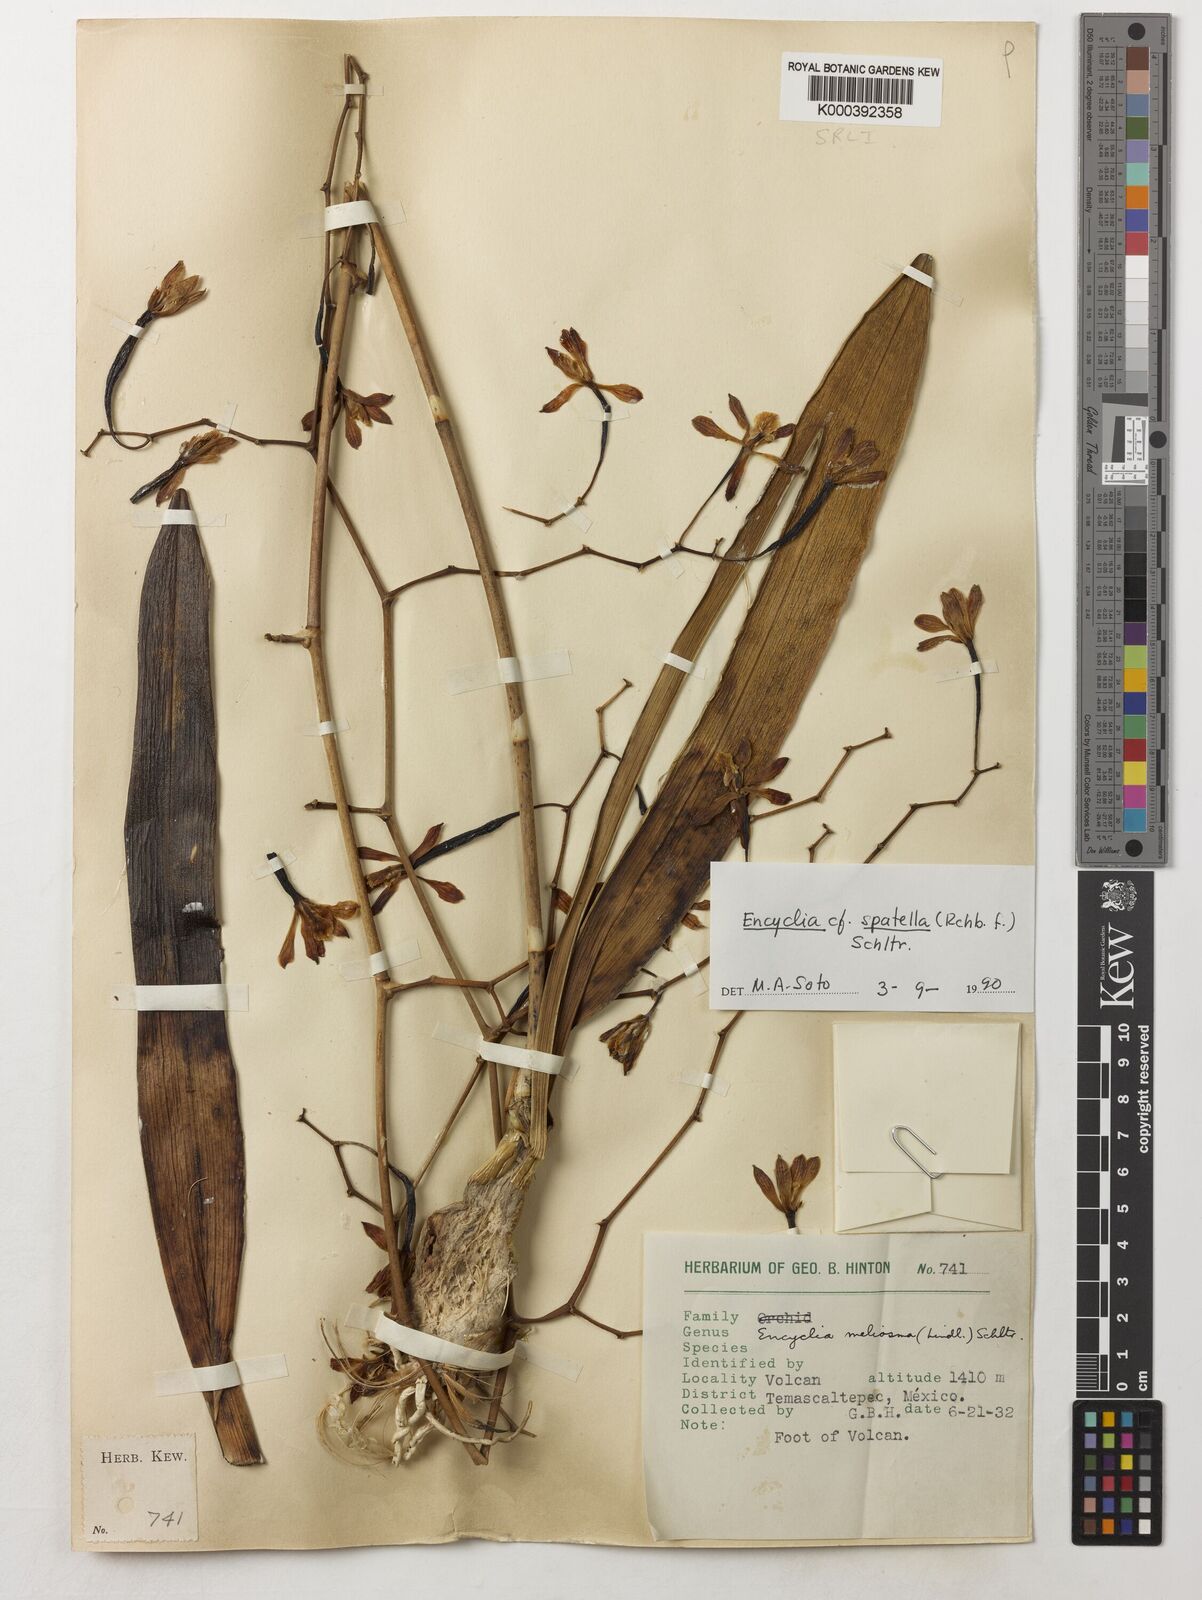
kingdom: Plantae
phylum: Tracheophyta
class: Liliopsida
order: Asparagales
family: Orchidaceae
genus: Encyclia
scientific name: Encyclia spatella
